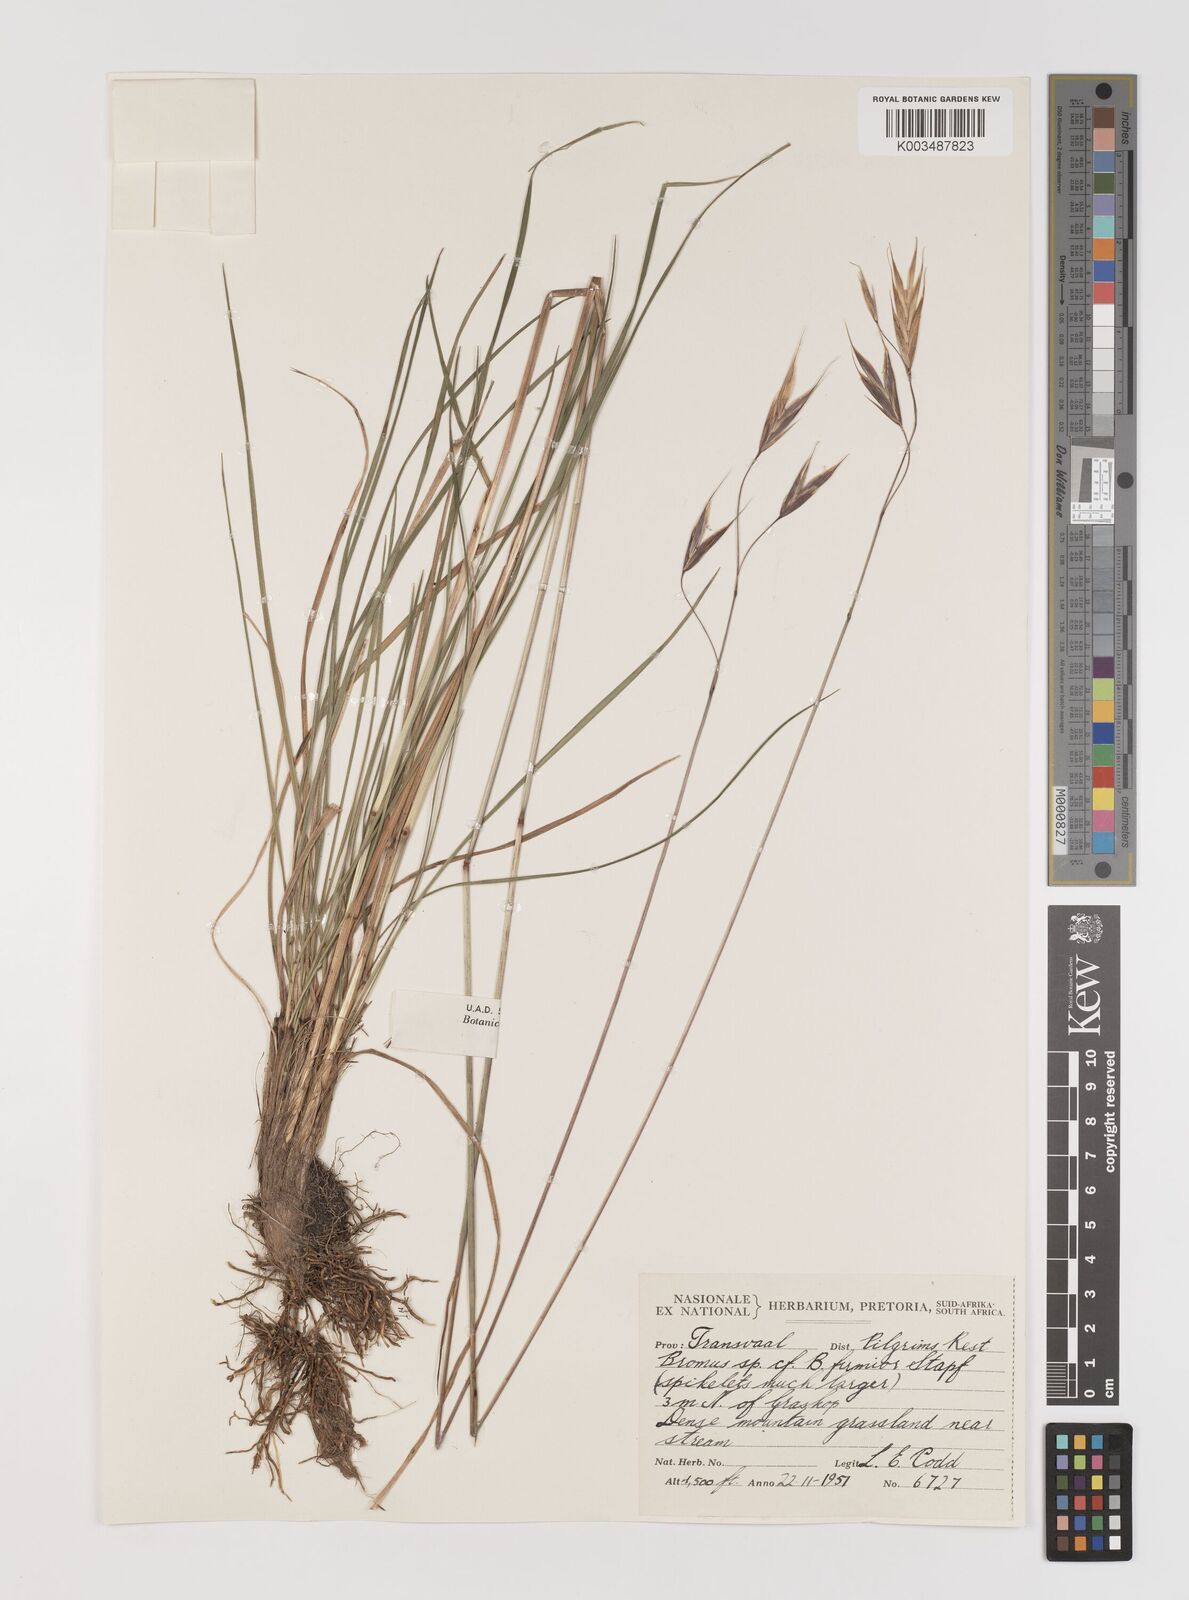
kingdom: Plantae
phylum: Tracheophyta
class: Liliopsida
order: Poales
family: Poaceae
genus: Bromus
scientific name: Bromus
